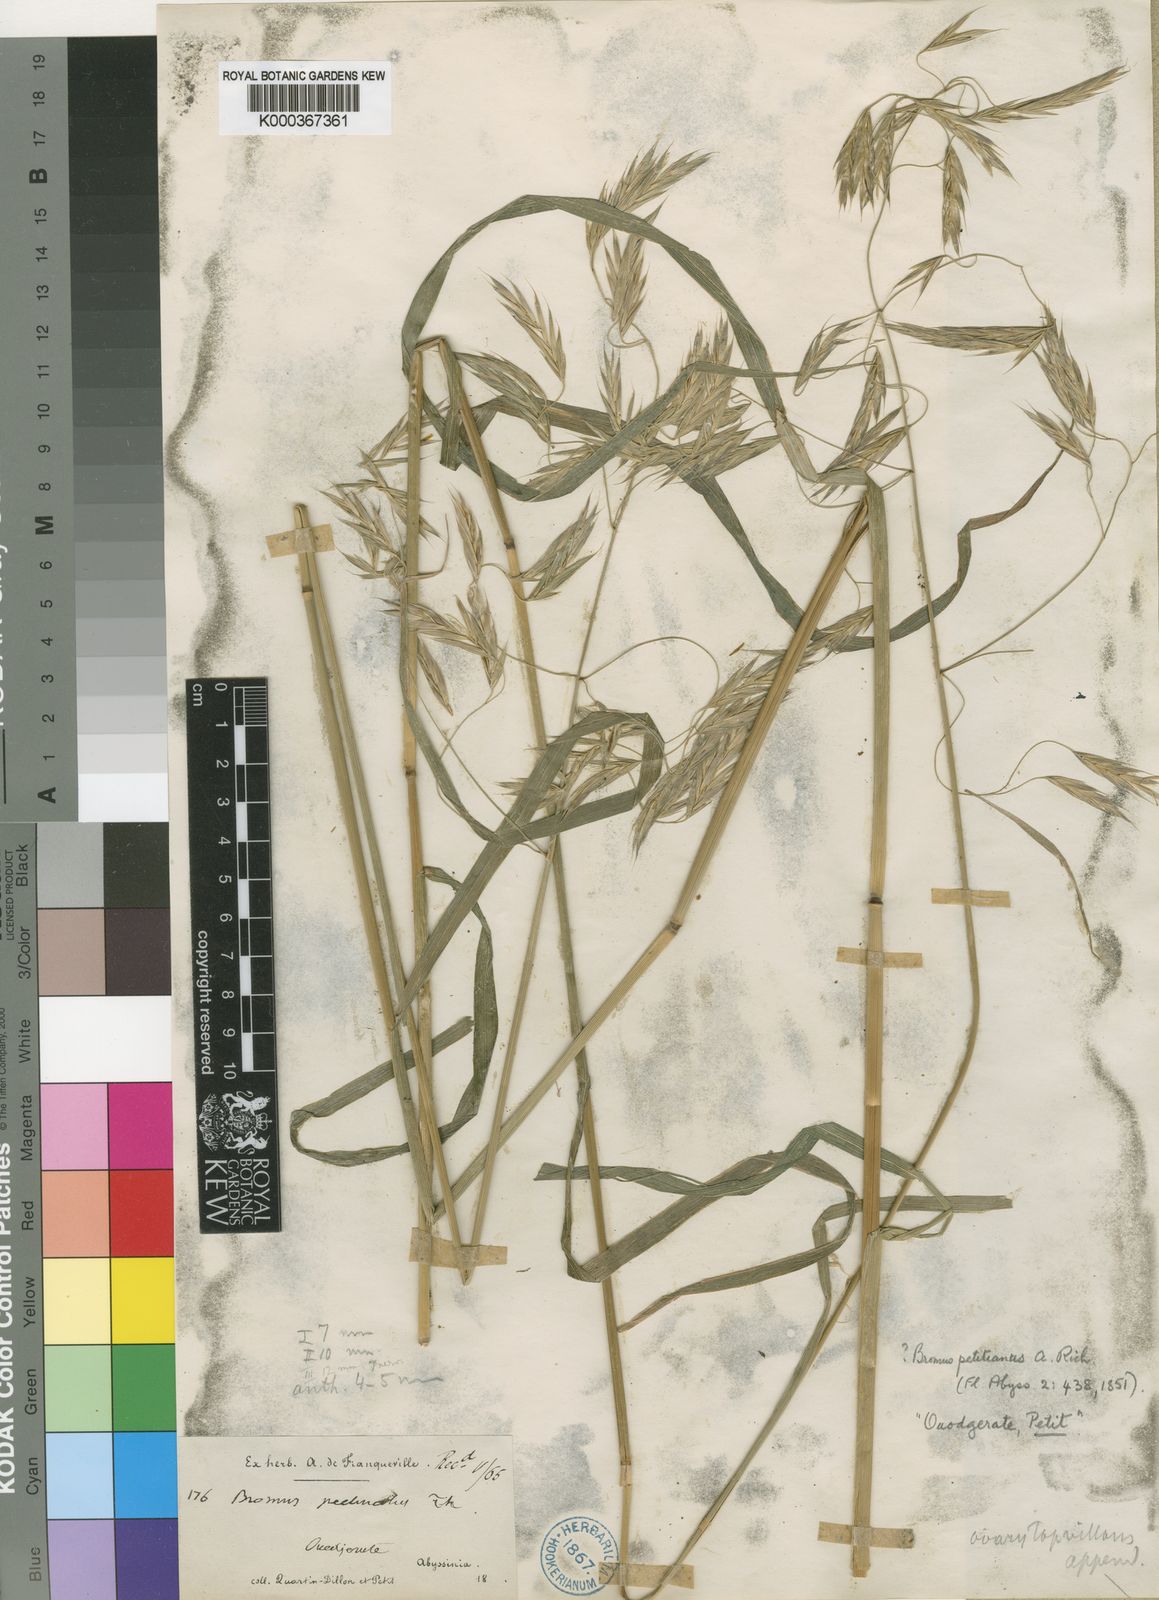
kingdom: Plantae
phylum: Tracheophyta
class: Liliopsida
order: Poales
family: Poaceae
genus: Bromus
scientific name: Bromus leptoclados
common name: Mountain bromegrass
